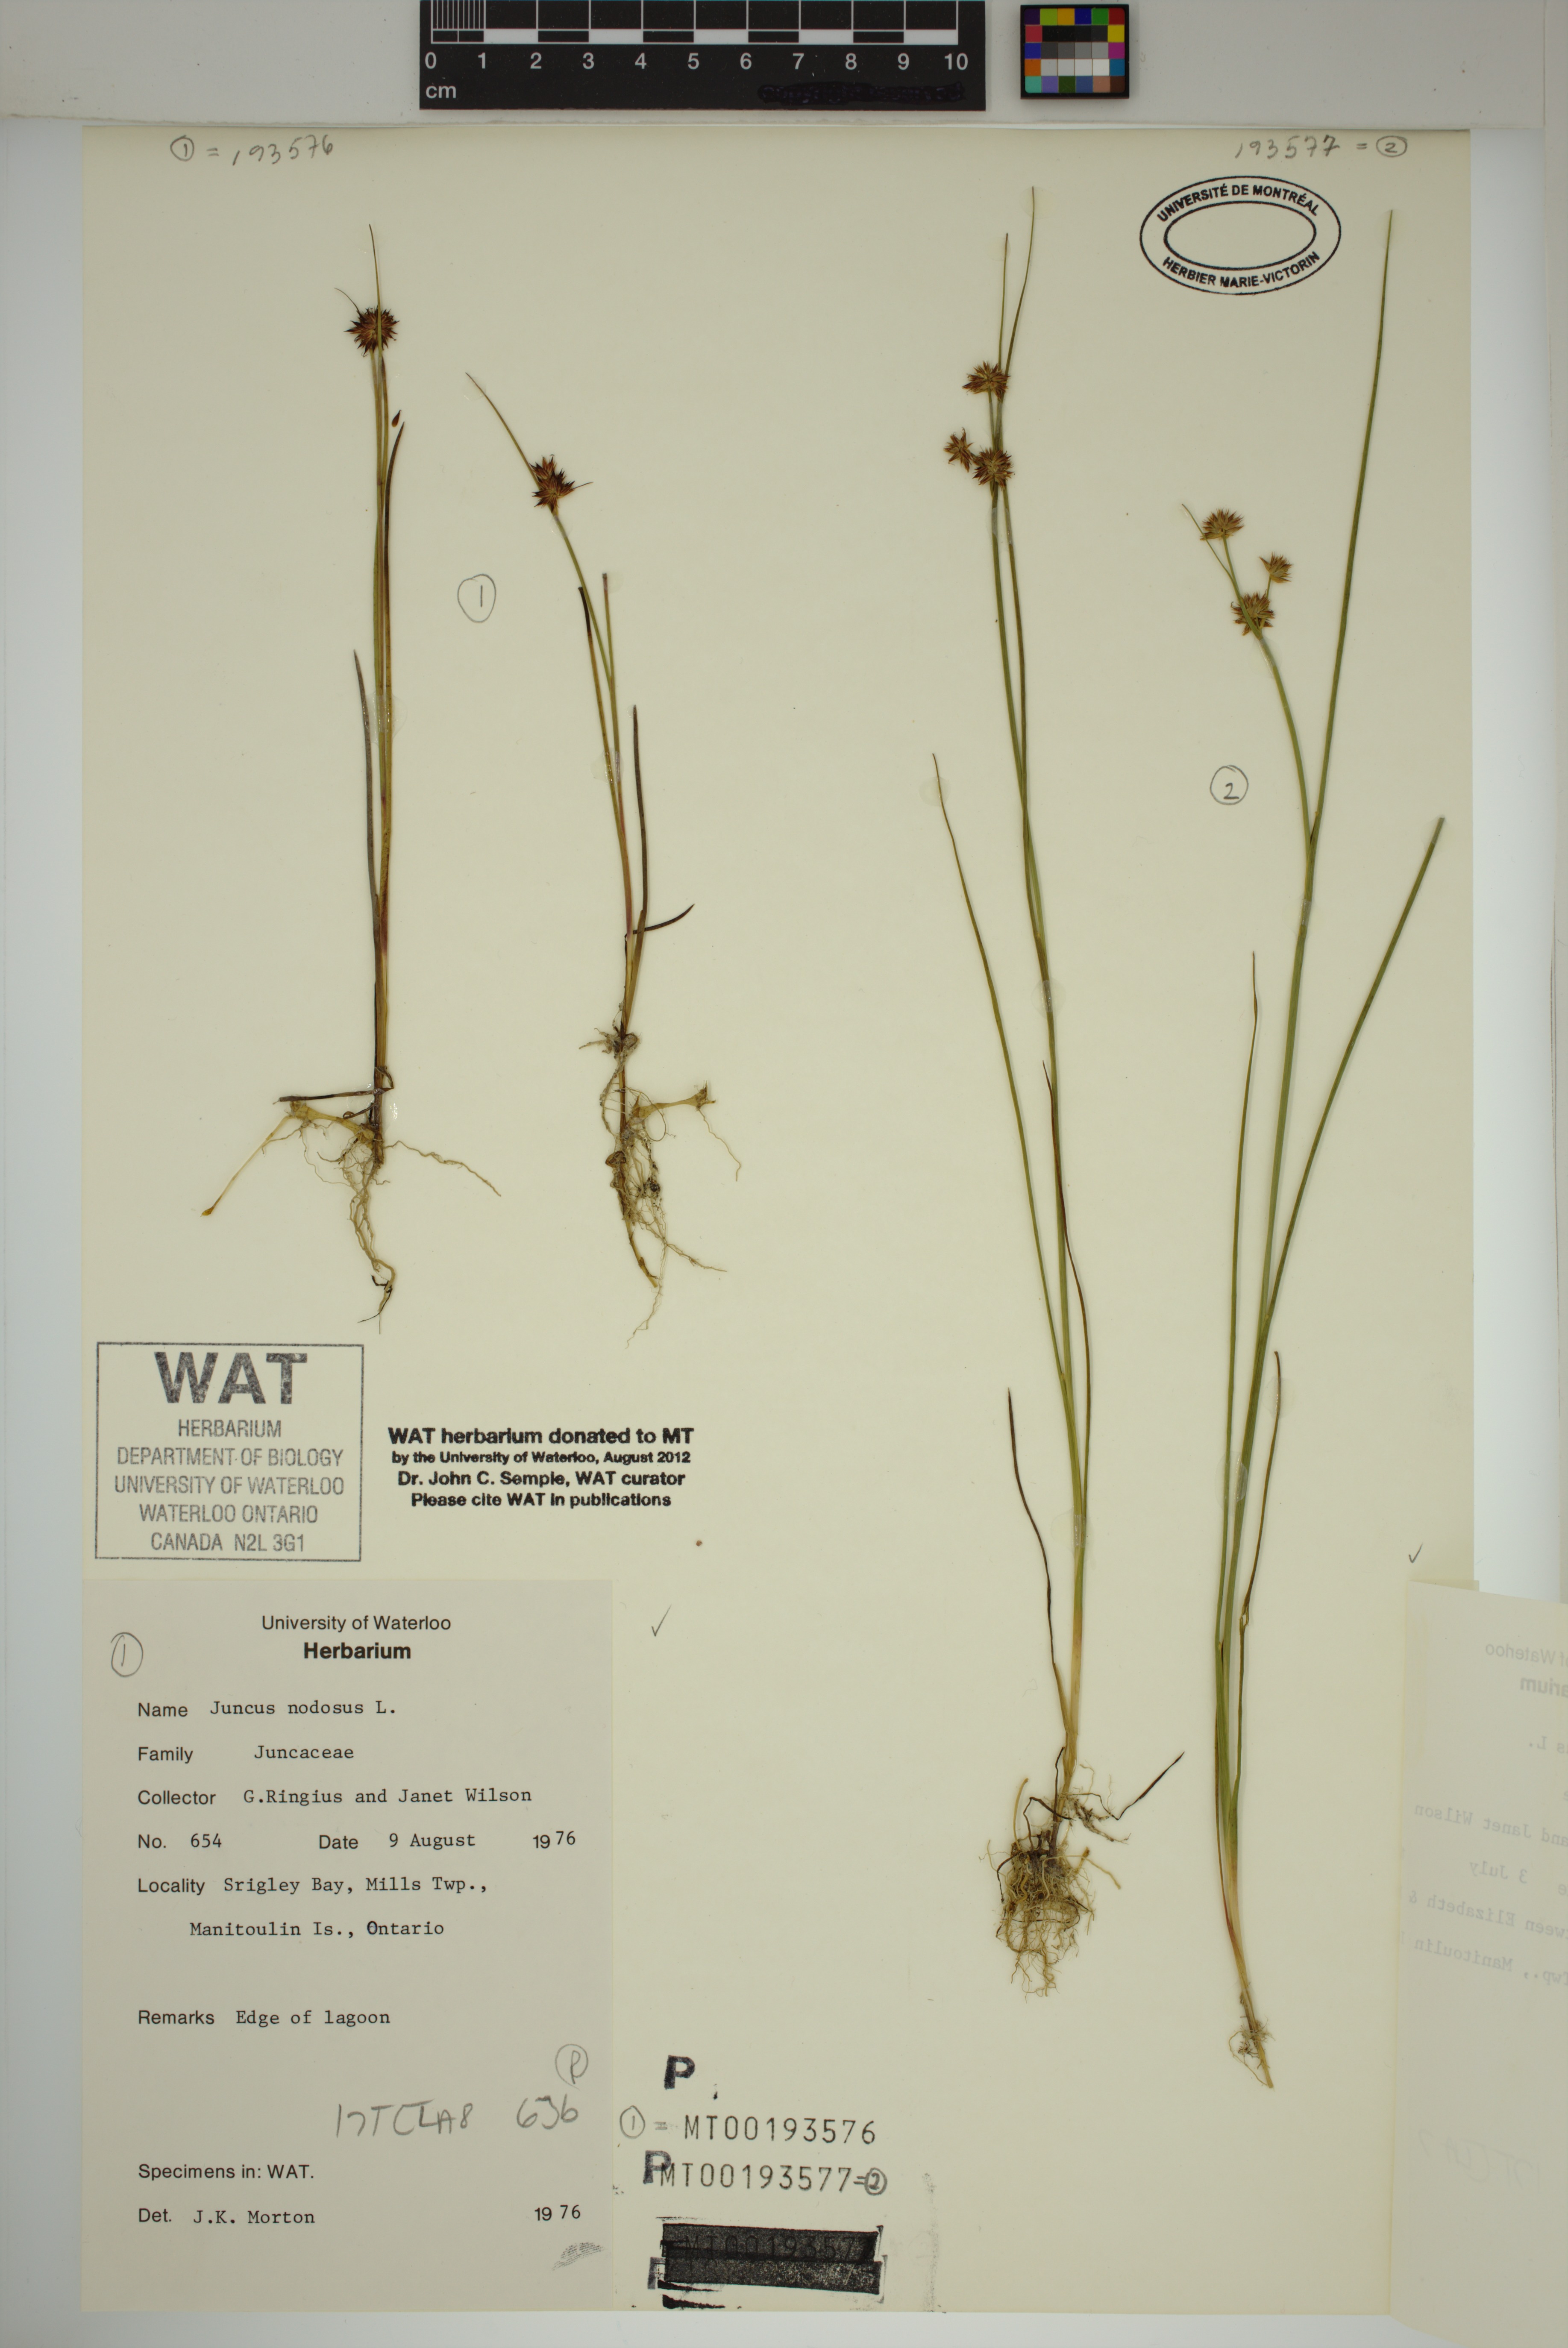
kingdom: Plantae
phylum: Tracheophyta
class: Liliopsida
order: Poales
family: Juncaceae
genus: Juncus
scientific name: Juncus nodosus
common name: Knotted rush
